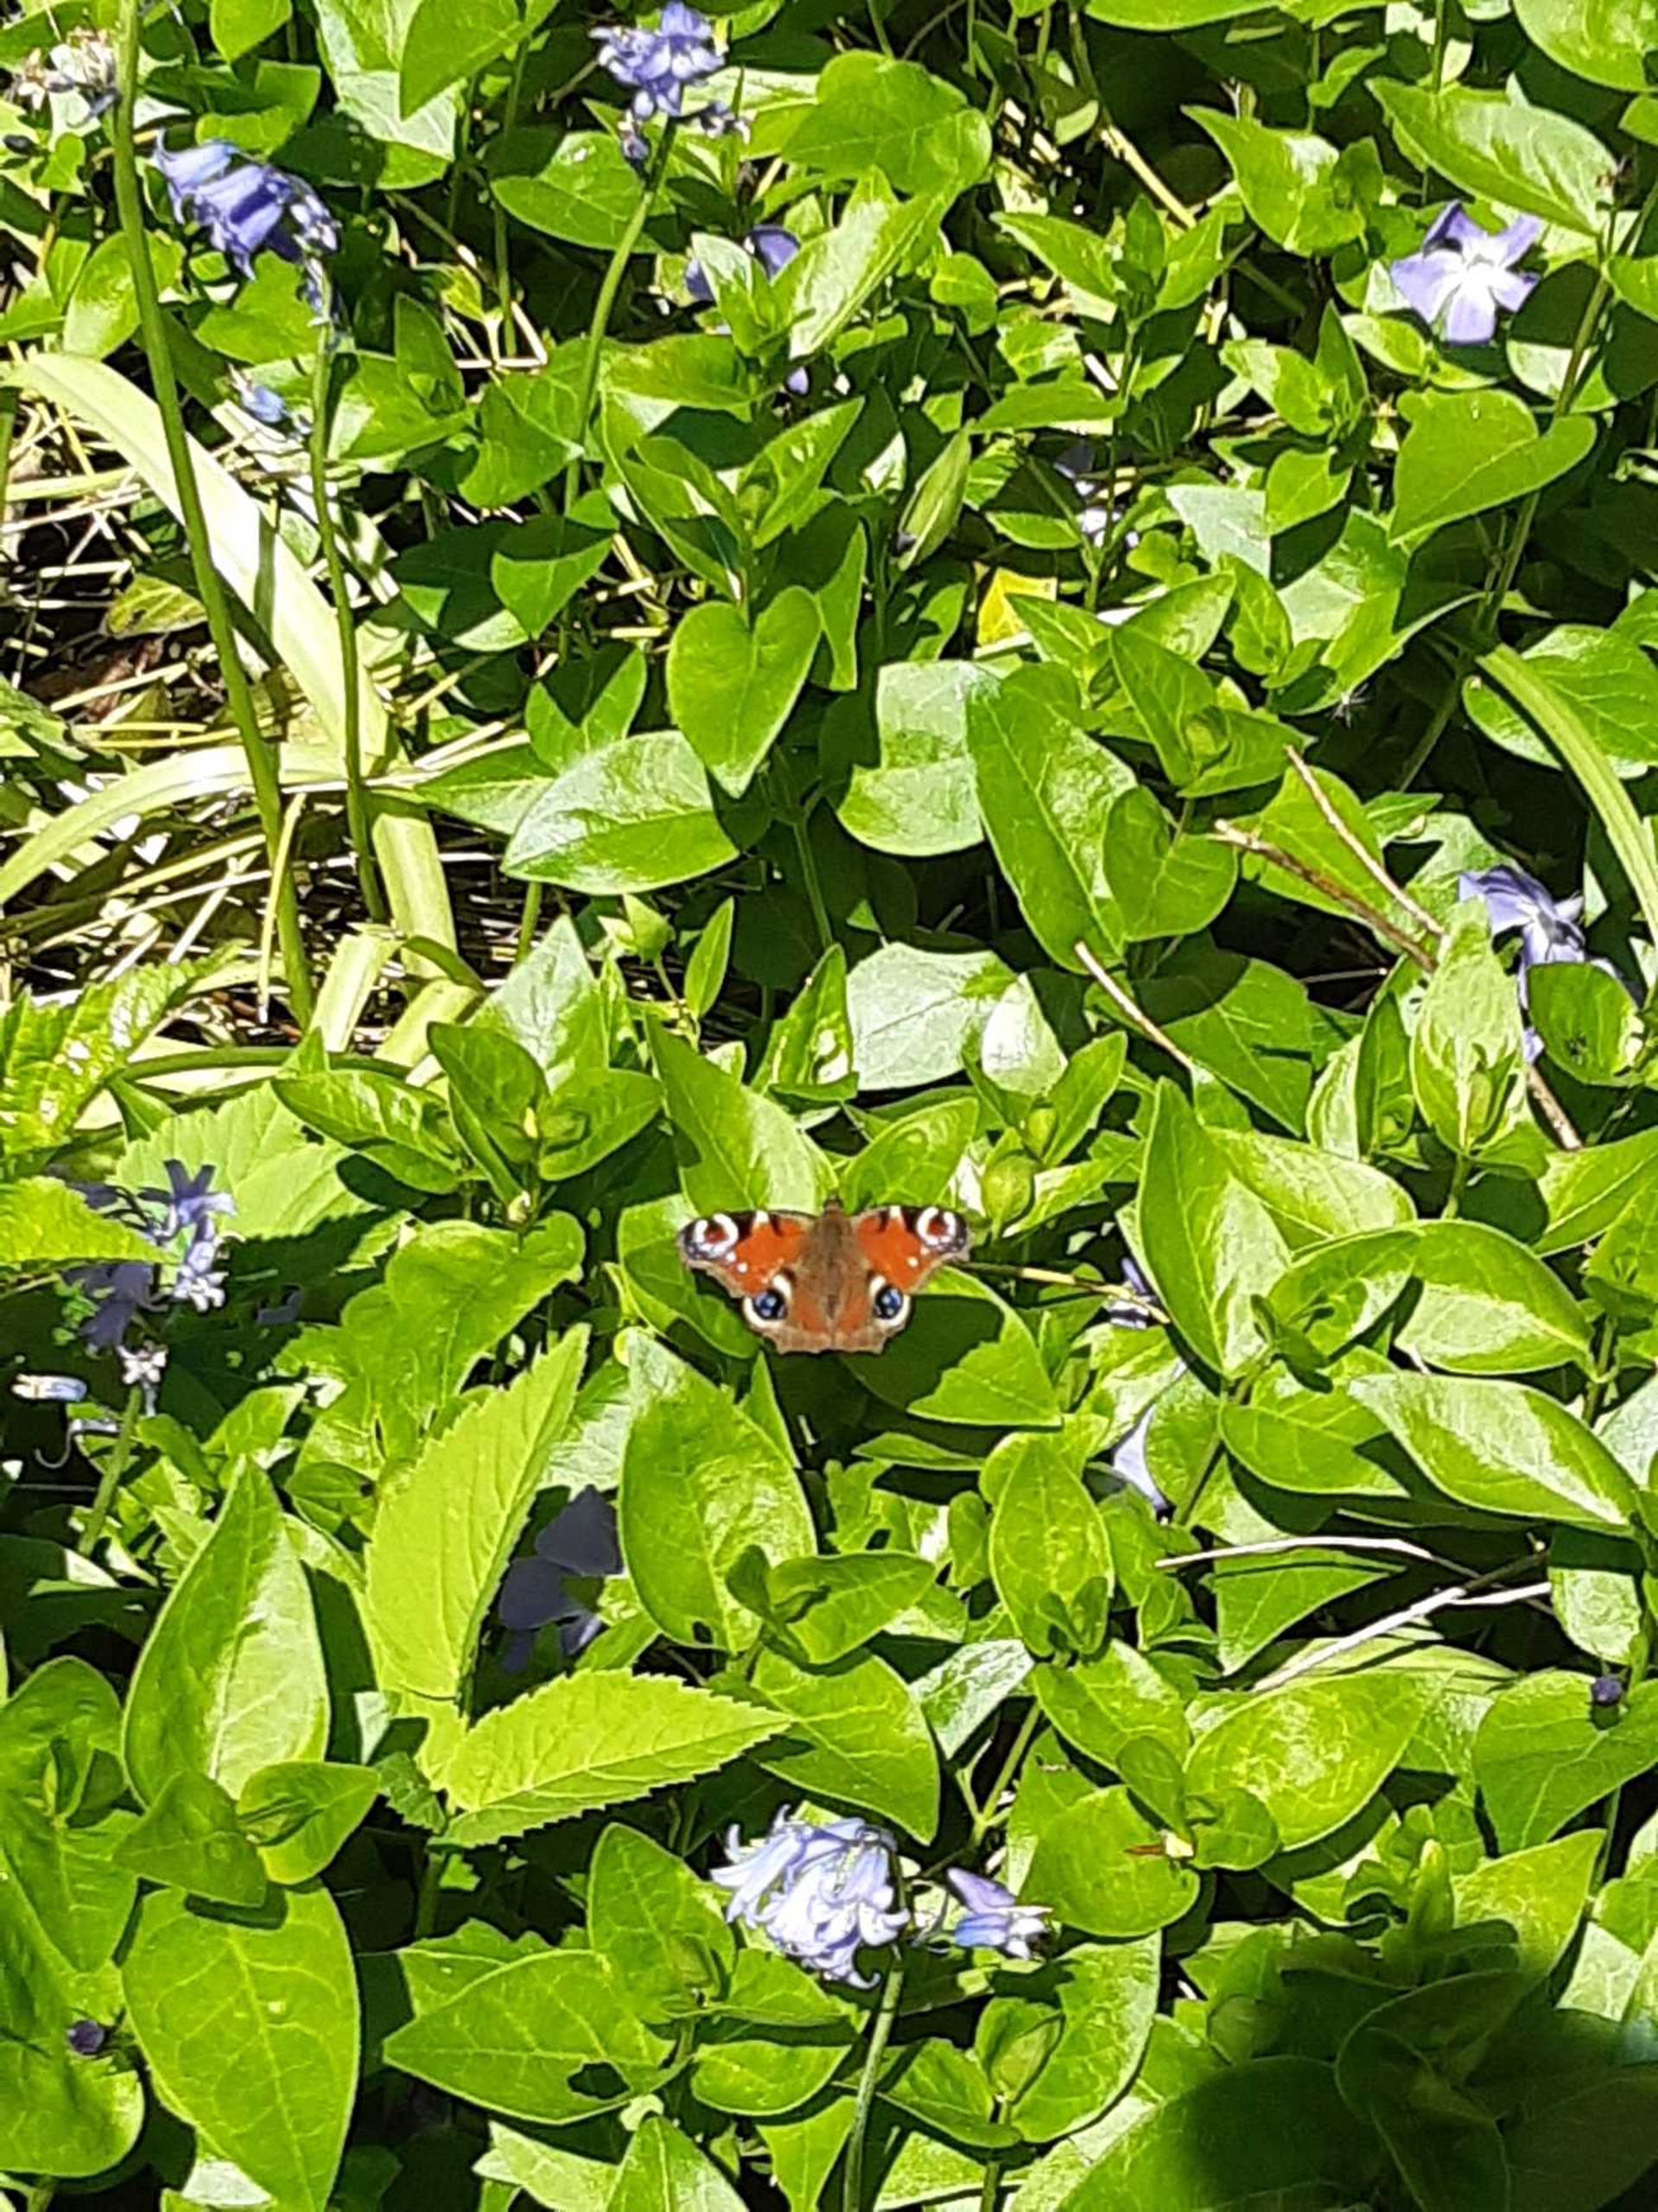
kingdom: Animalia
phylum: Arthropoda
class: Insecta
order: Lepidoptera
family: Nymphalidae
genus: Aglais
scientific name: Aglais io
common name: Dagpåfugleøje
